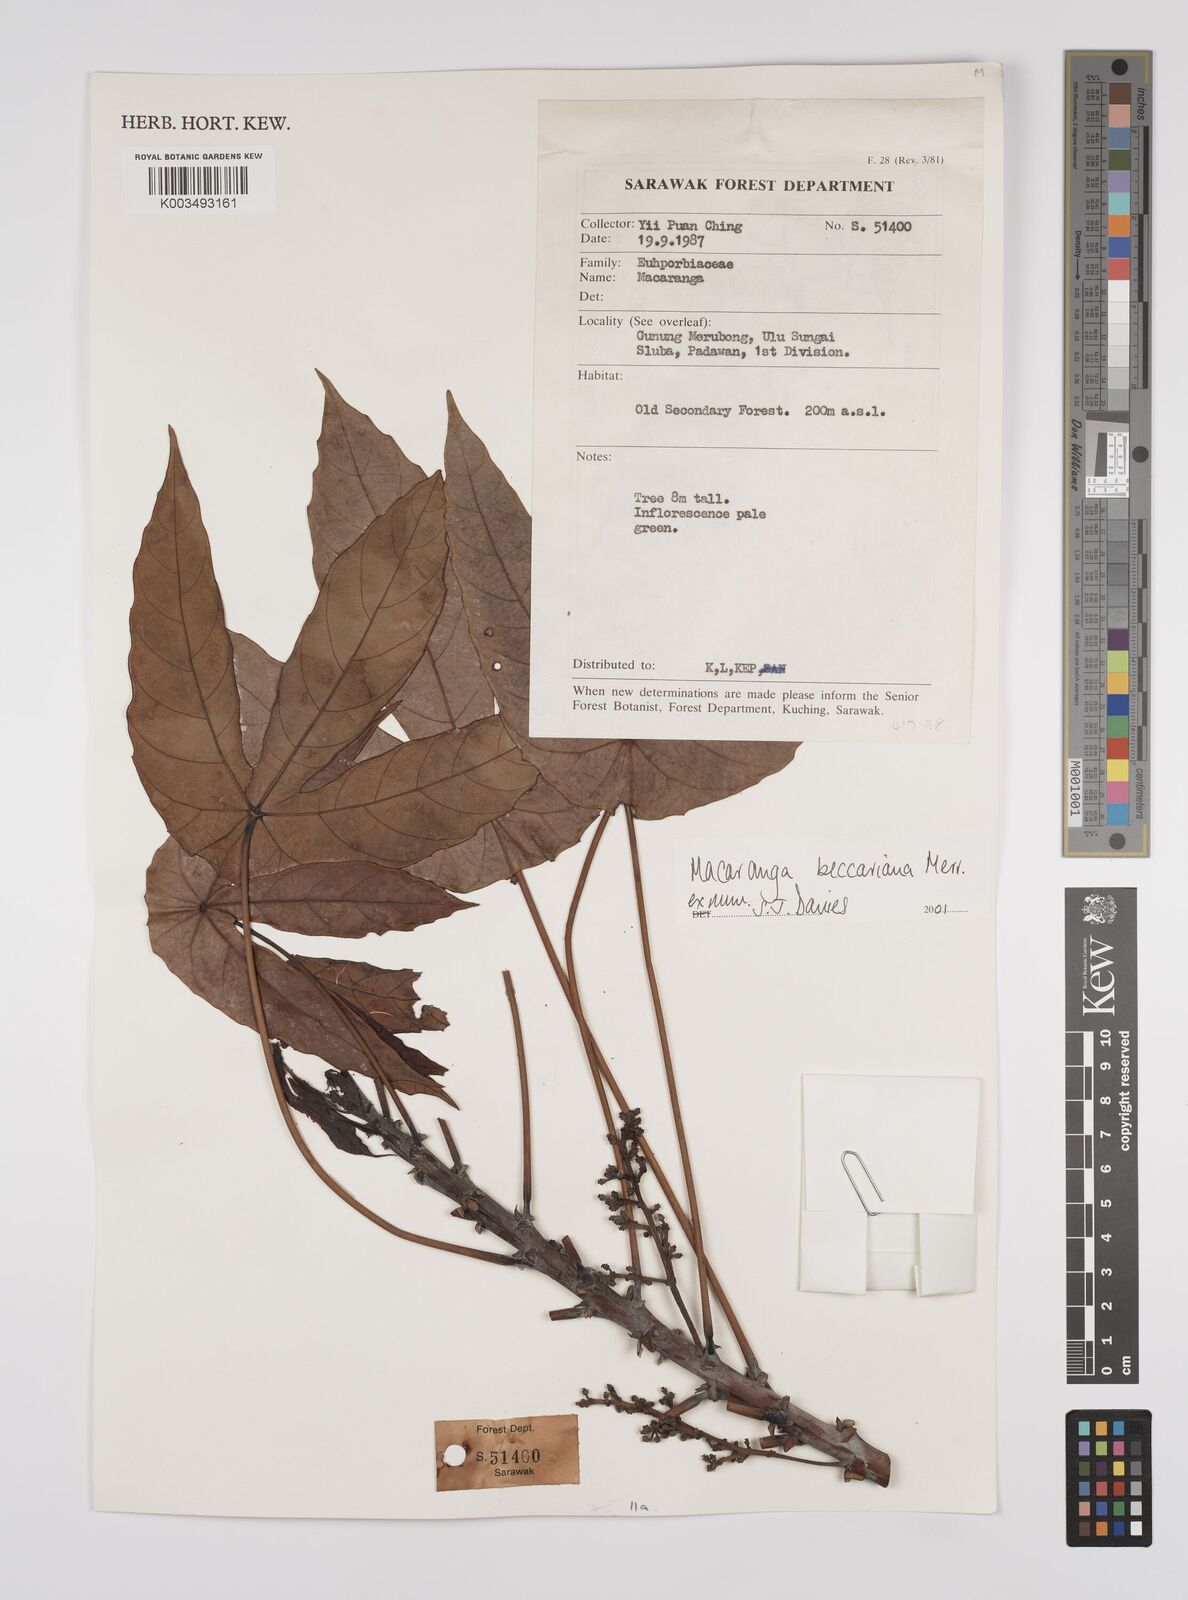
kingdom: Plantae
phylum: Tracheophyta
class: Magnoliopsida
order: Malpighiales
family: Euphorbiaceae
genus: Macaranga
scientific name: Macaranga beccariana
